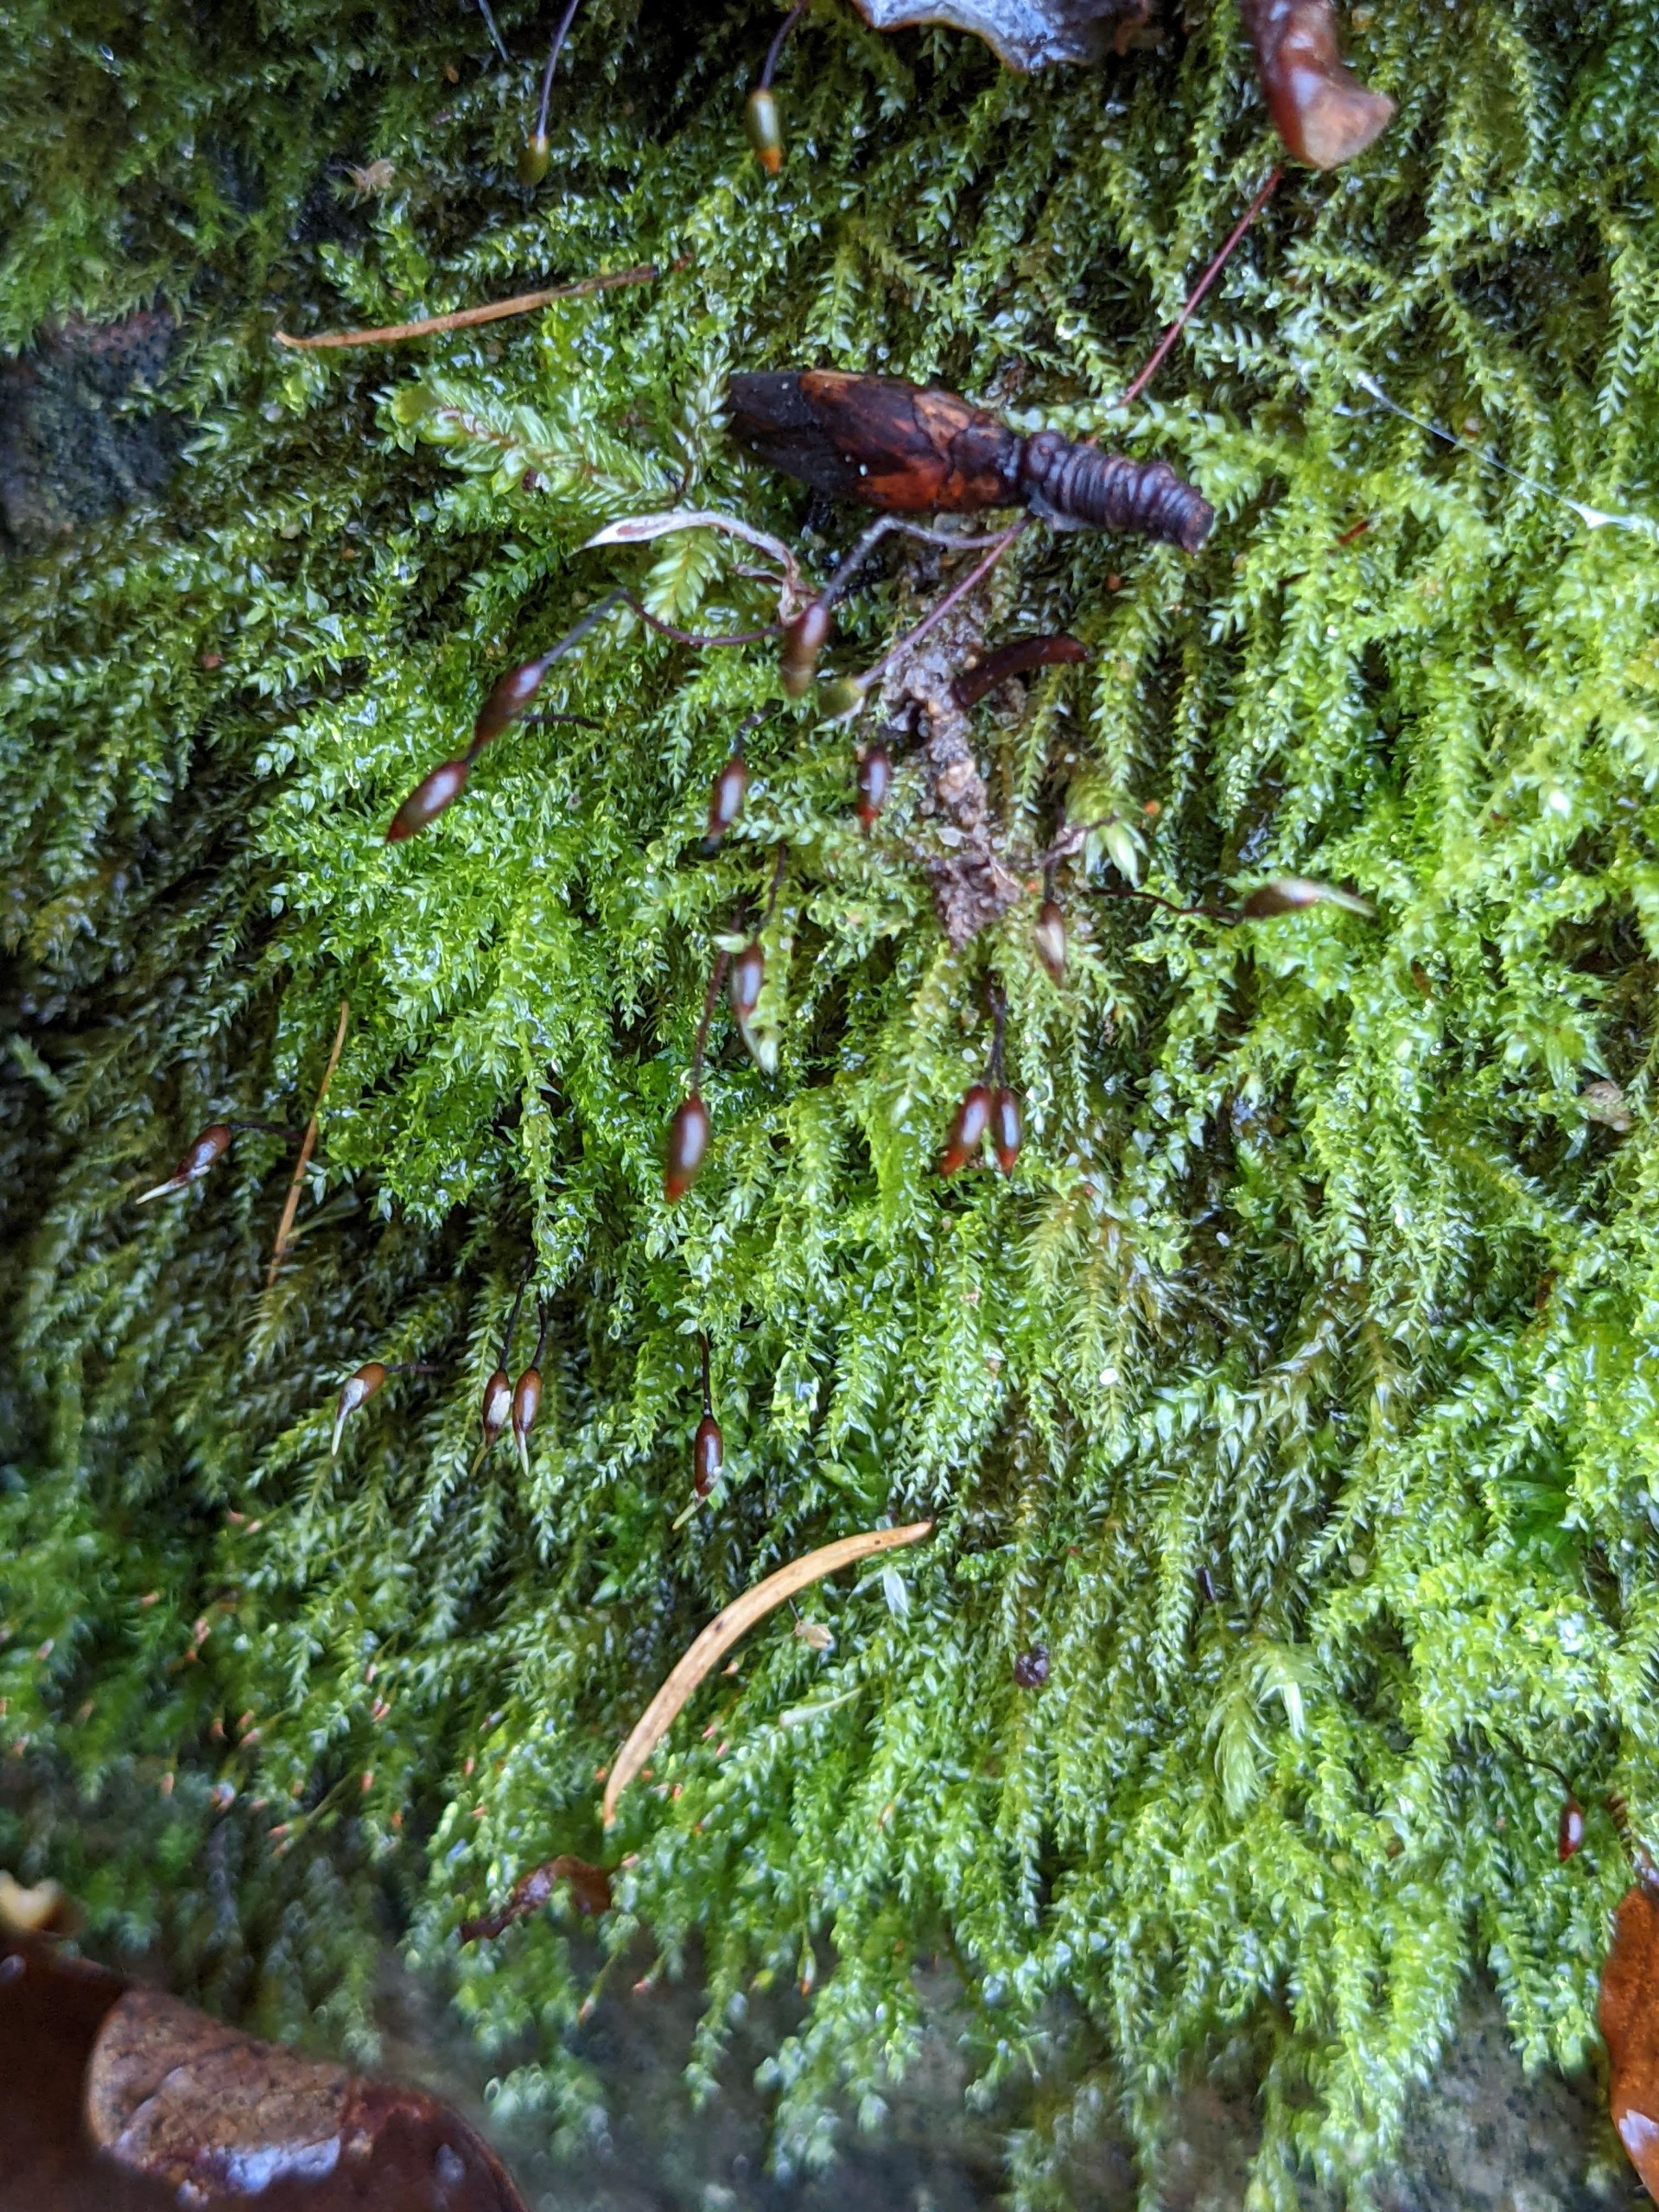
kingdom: Plantae
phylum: Bryophyta
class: Bryopsida
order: Hypnales
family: Brachytheciaceae
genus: Oxyrrhynchium
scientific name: Oxyrrhynchium hians
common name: Ler-vortetand
